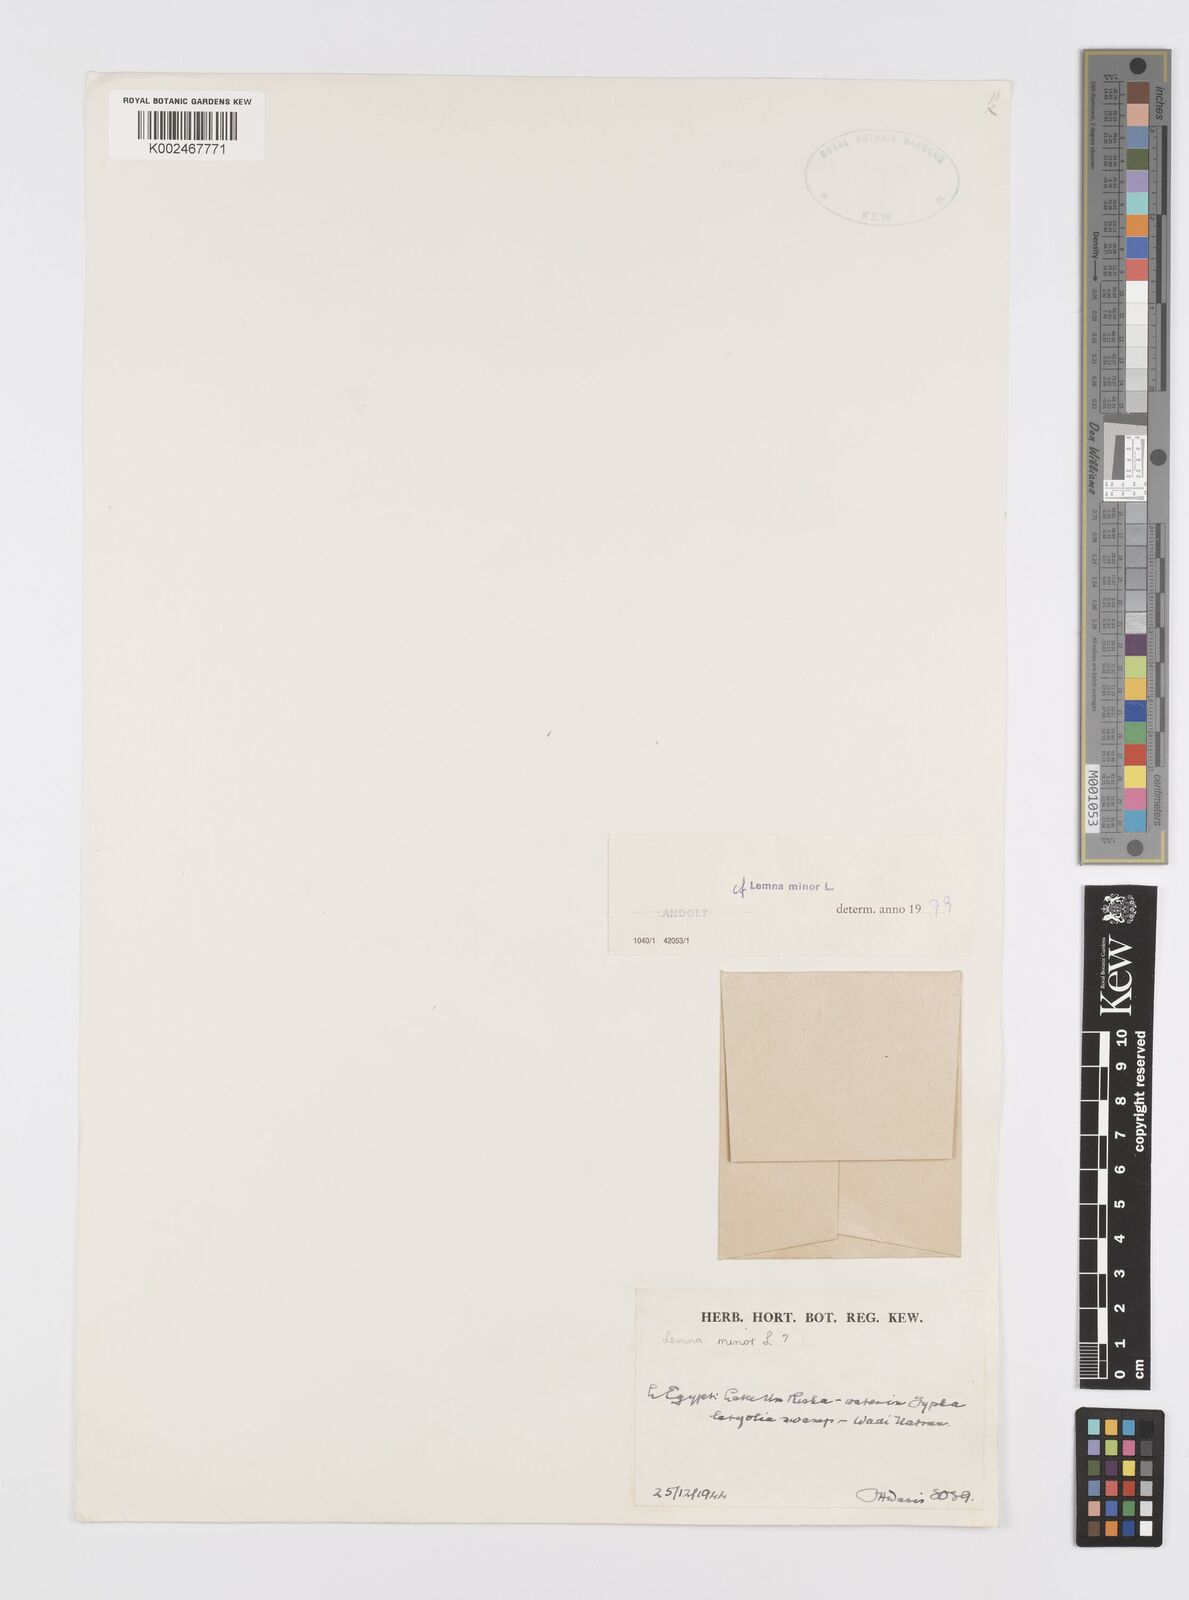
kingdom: Plantae
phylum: Tracheophyta
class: Liliopsida
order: Alismatales
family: Araceae
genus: Lemna
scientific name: Lemna minor
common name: Common duckweed
